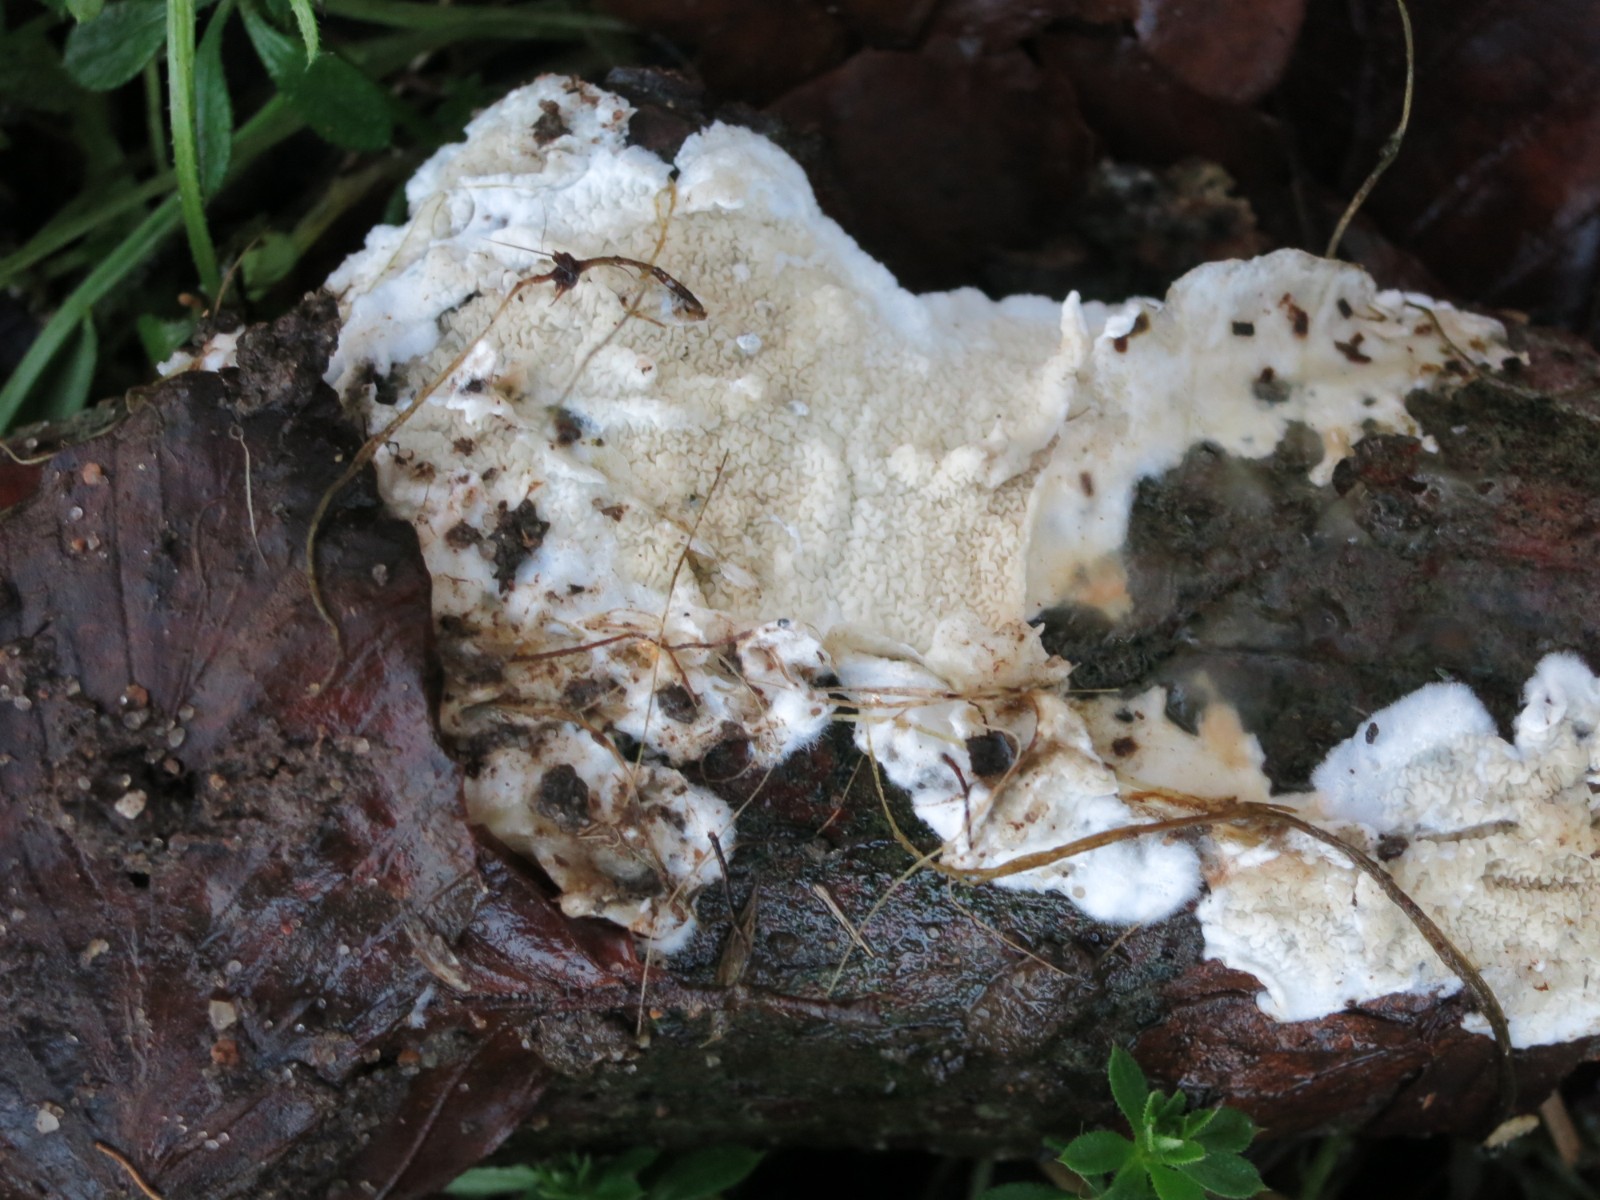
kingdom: Fungi
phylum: Basidiomycota
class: Agaricomycetes
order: Polyporales
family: Irpicaceae
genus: Byssomerulius
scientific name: Byssomerulius corium
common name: læder-åresvamp
